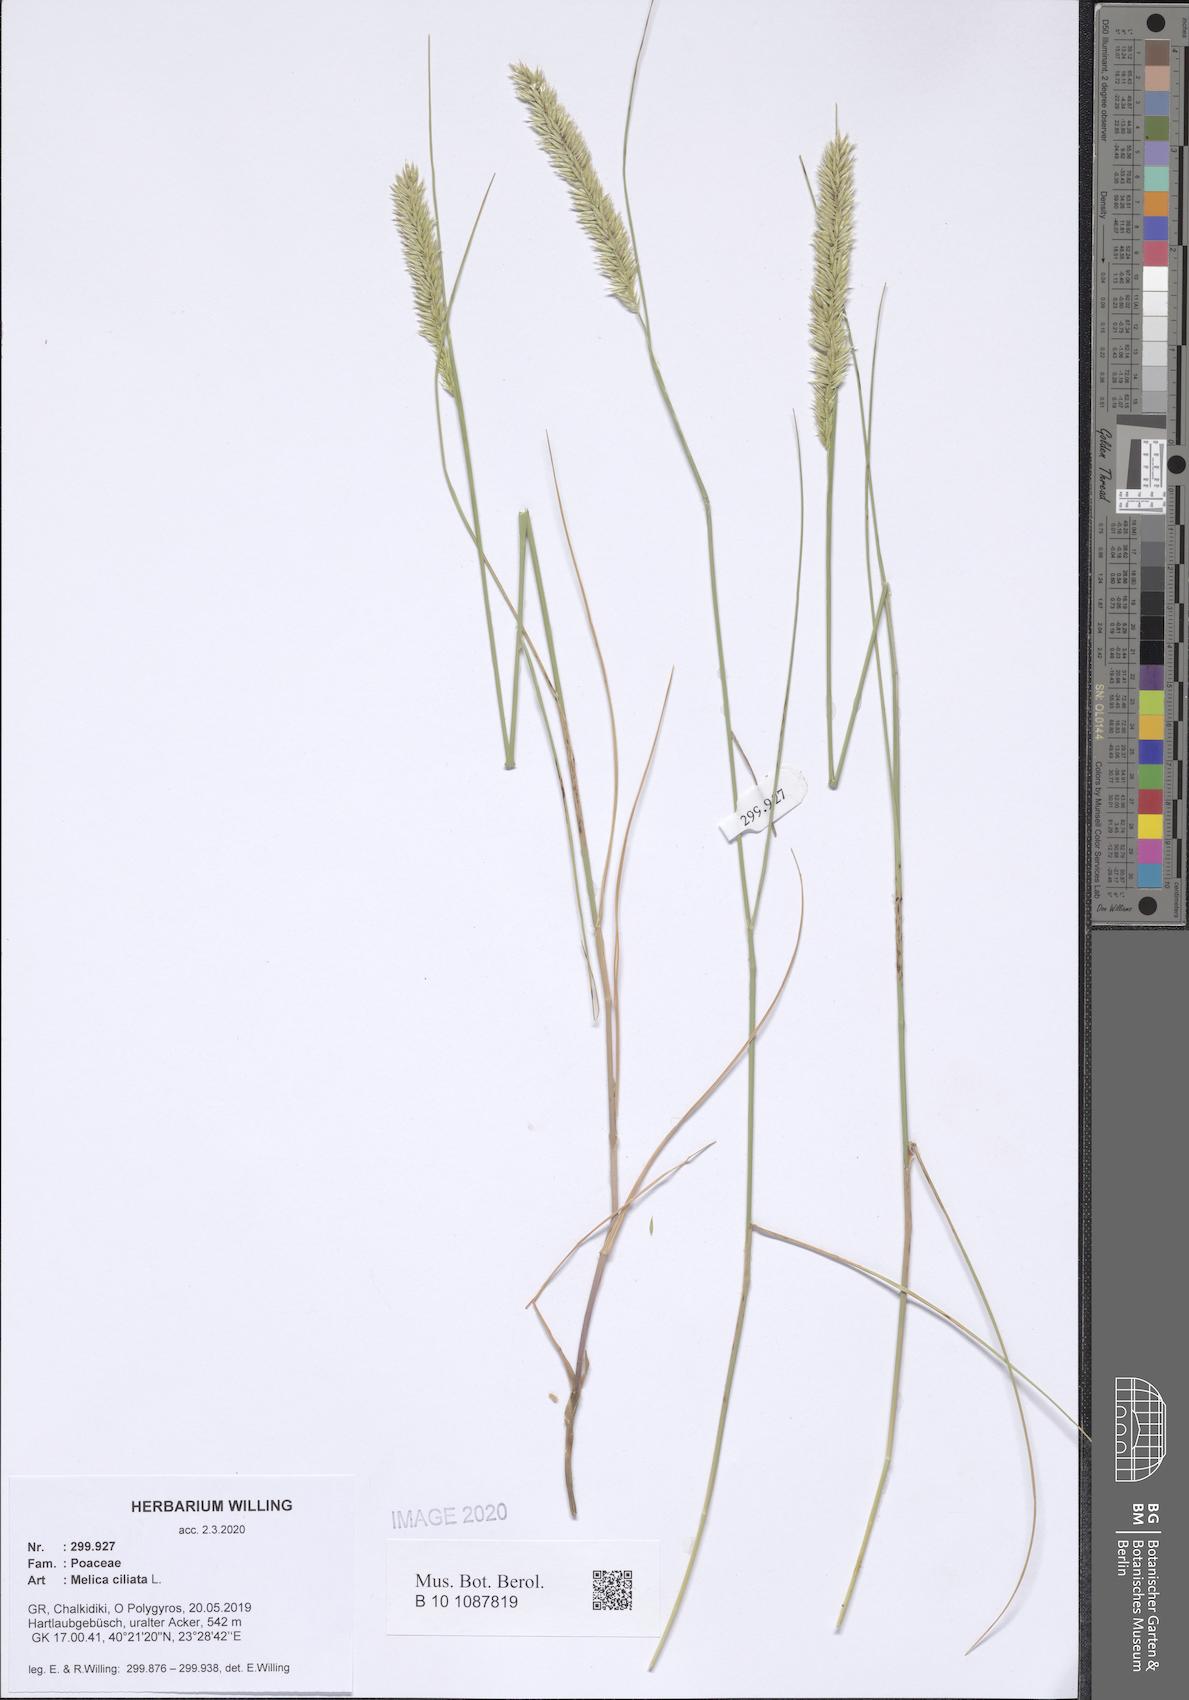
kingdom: Plantae
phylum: Tracheophyta
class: Liliopsida
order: Poales
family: Poaceae
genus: Melica
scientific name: Melica ciliata
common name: Hairy melicgrass
